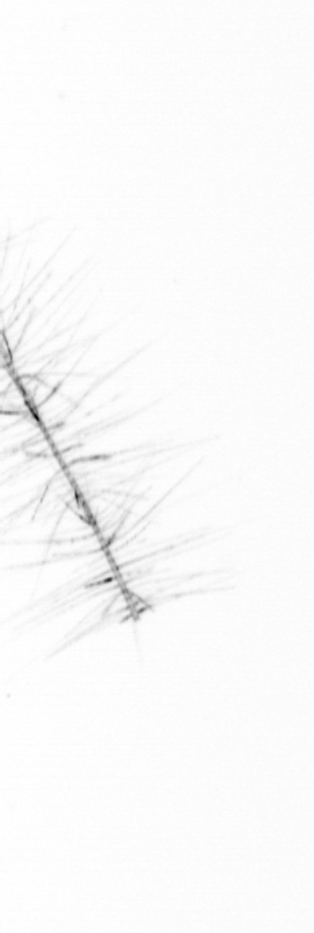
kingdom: Chromista
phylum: Ochrophyta
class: Bacillariophyceae
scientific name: Bacillariophyceae
